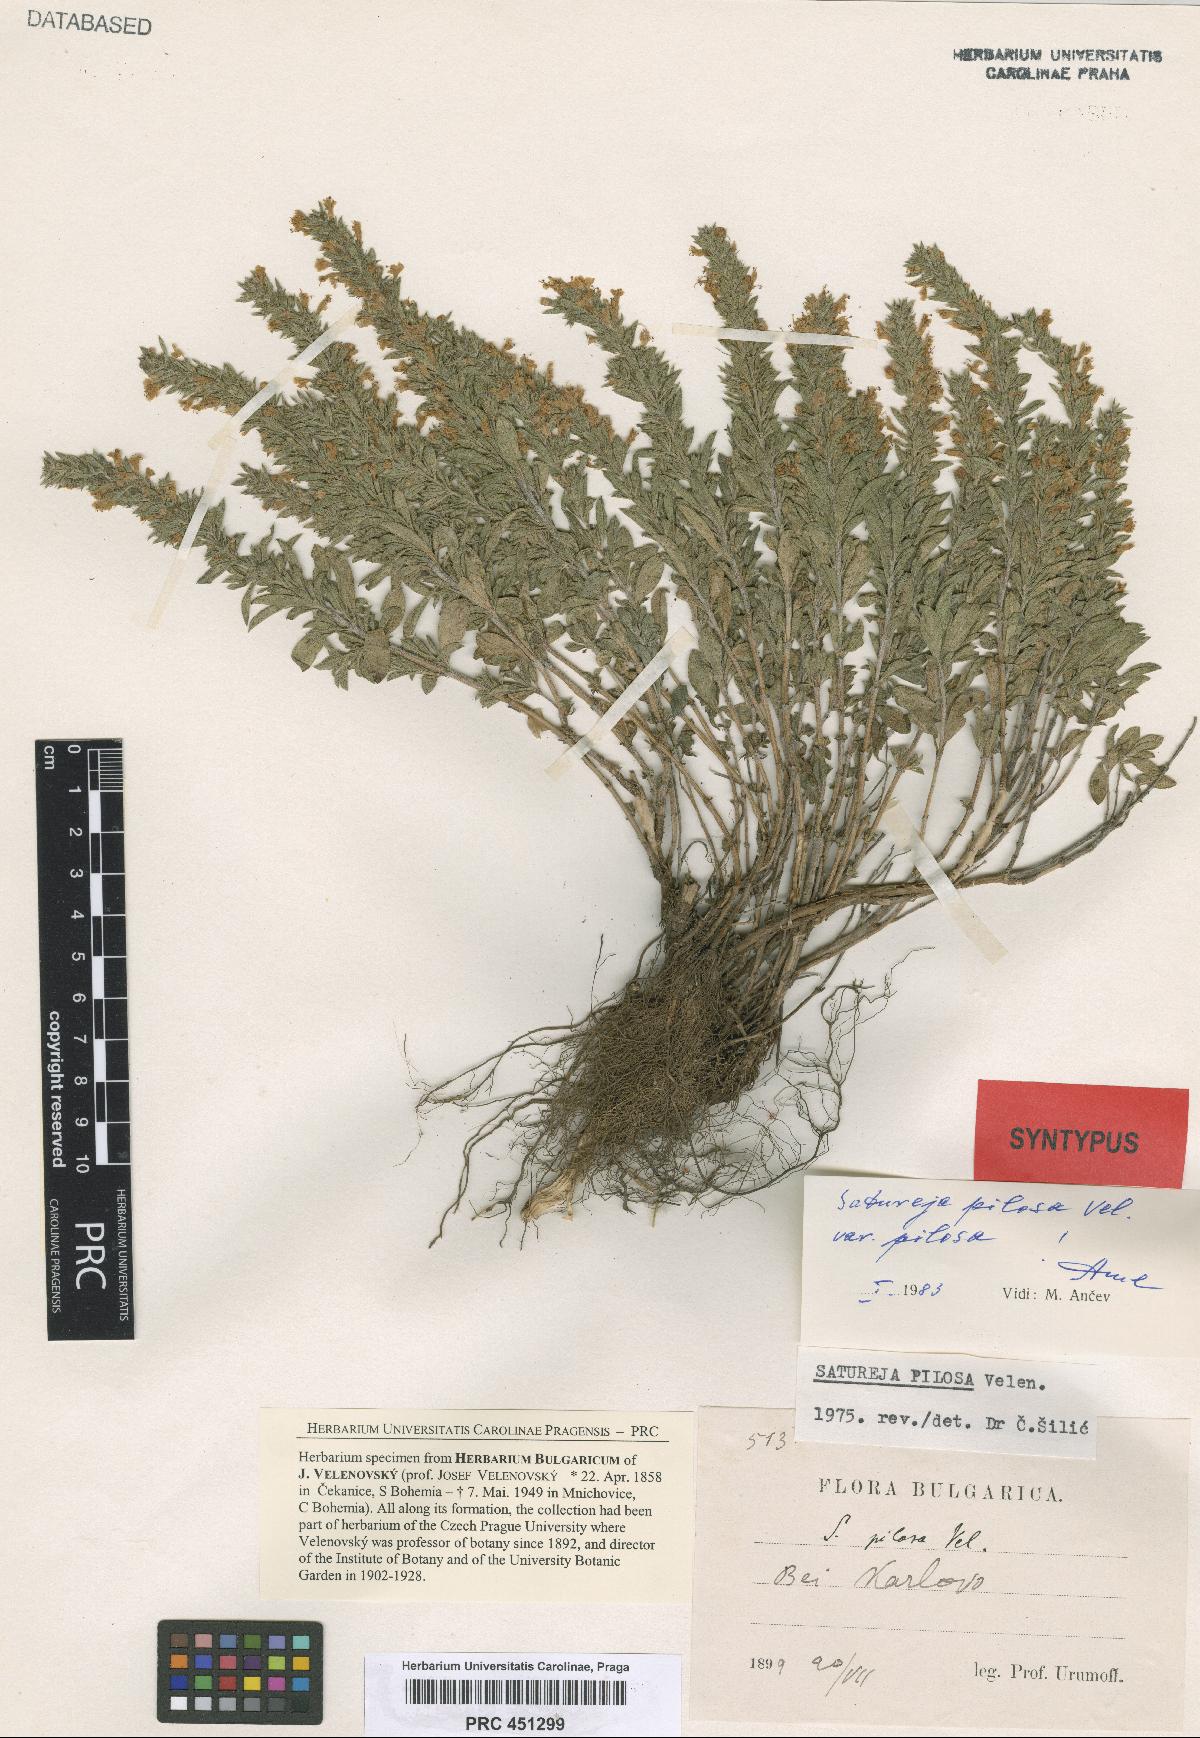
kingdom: Plantae
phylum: Tracheophyta
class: Magnoliopsida
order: Lamiales
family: Lamiaceae
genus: Satureja
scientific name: Satureja pilosa
